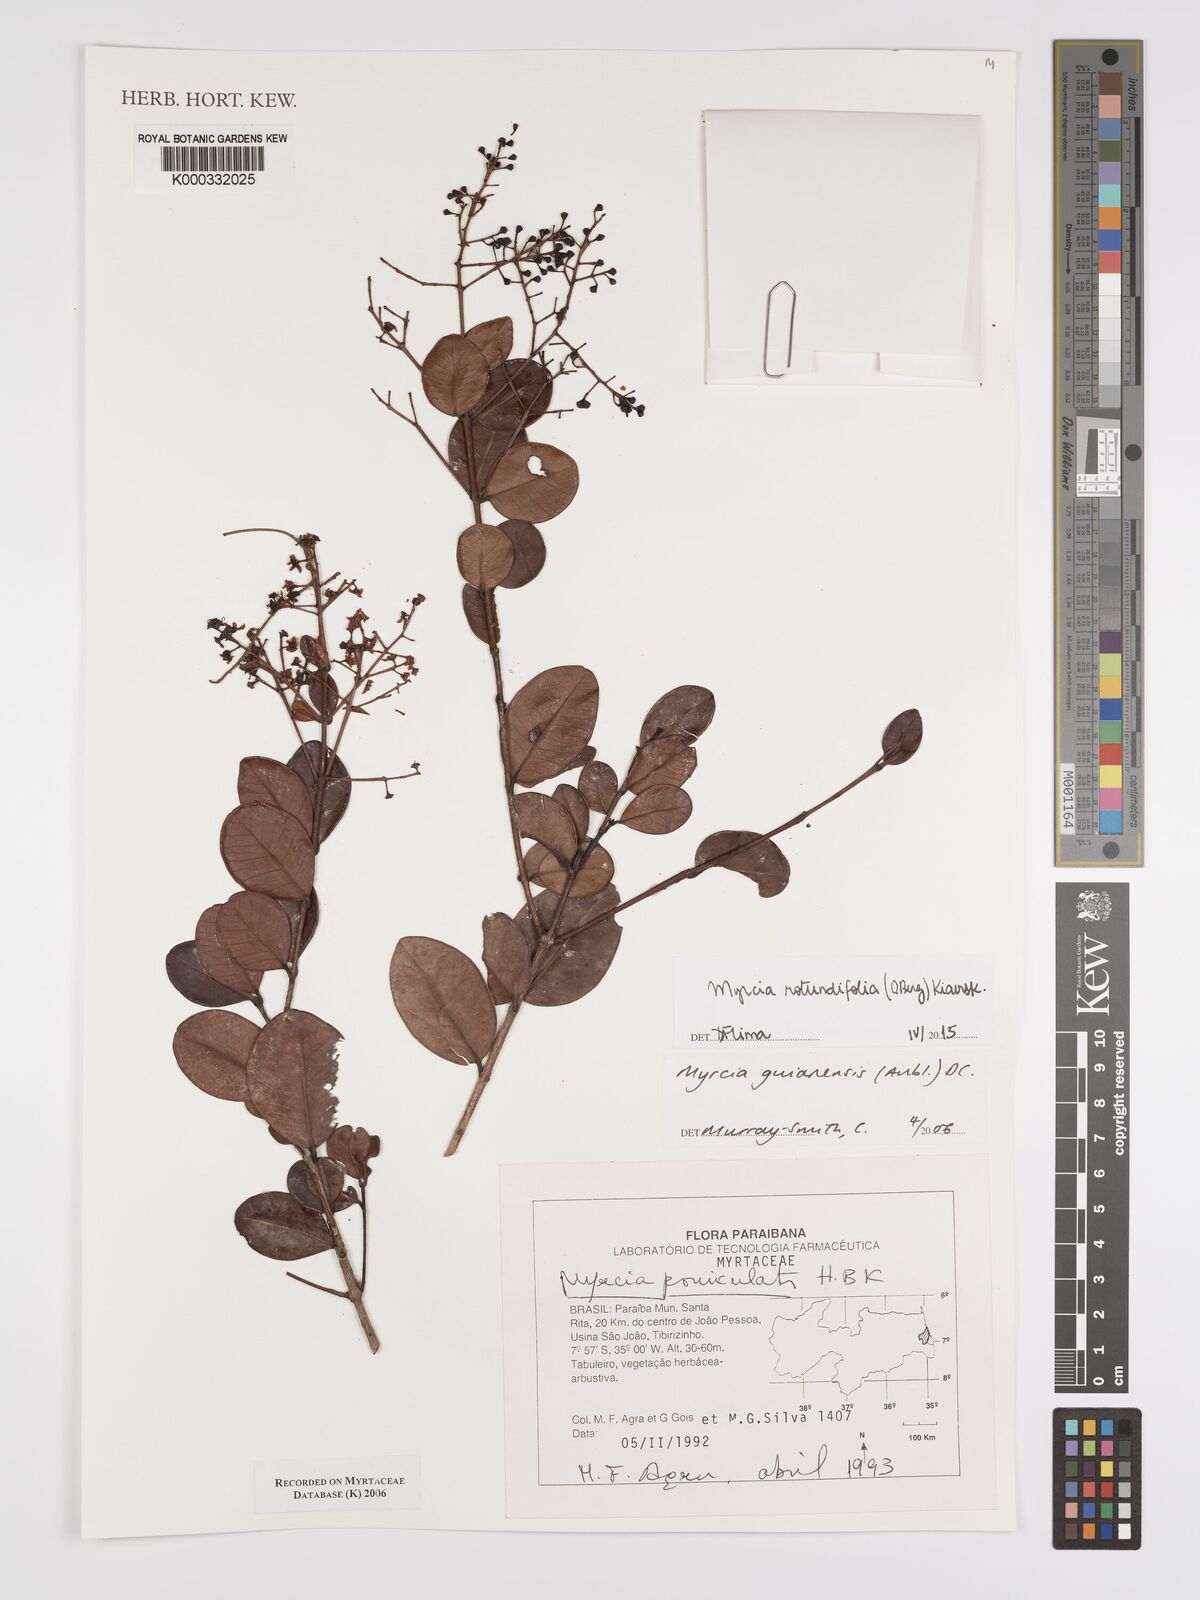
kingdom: Plantae
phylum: Tracheophyta
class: Magnoliopsida
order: Myrtales
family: Myrtaceae
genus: Myrcia
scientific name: Myrcia guianensis
